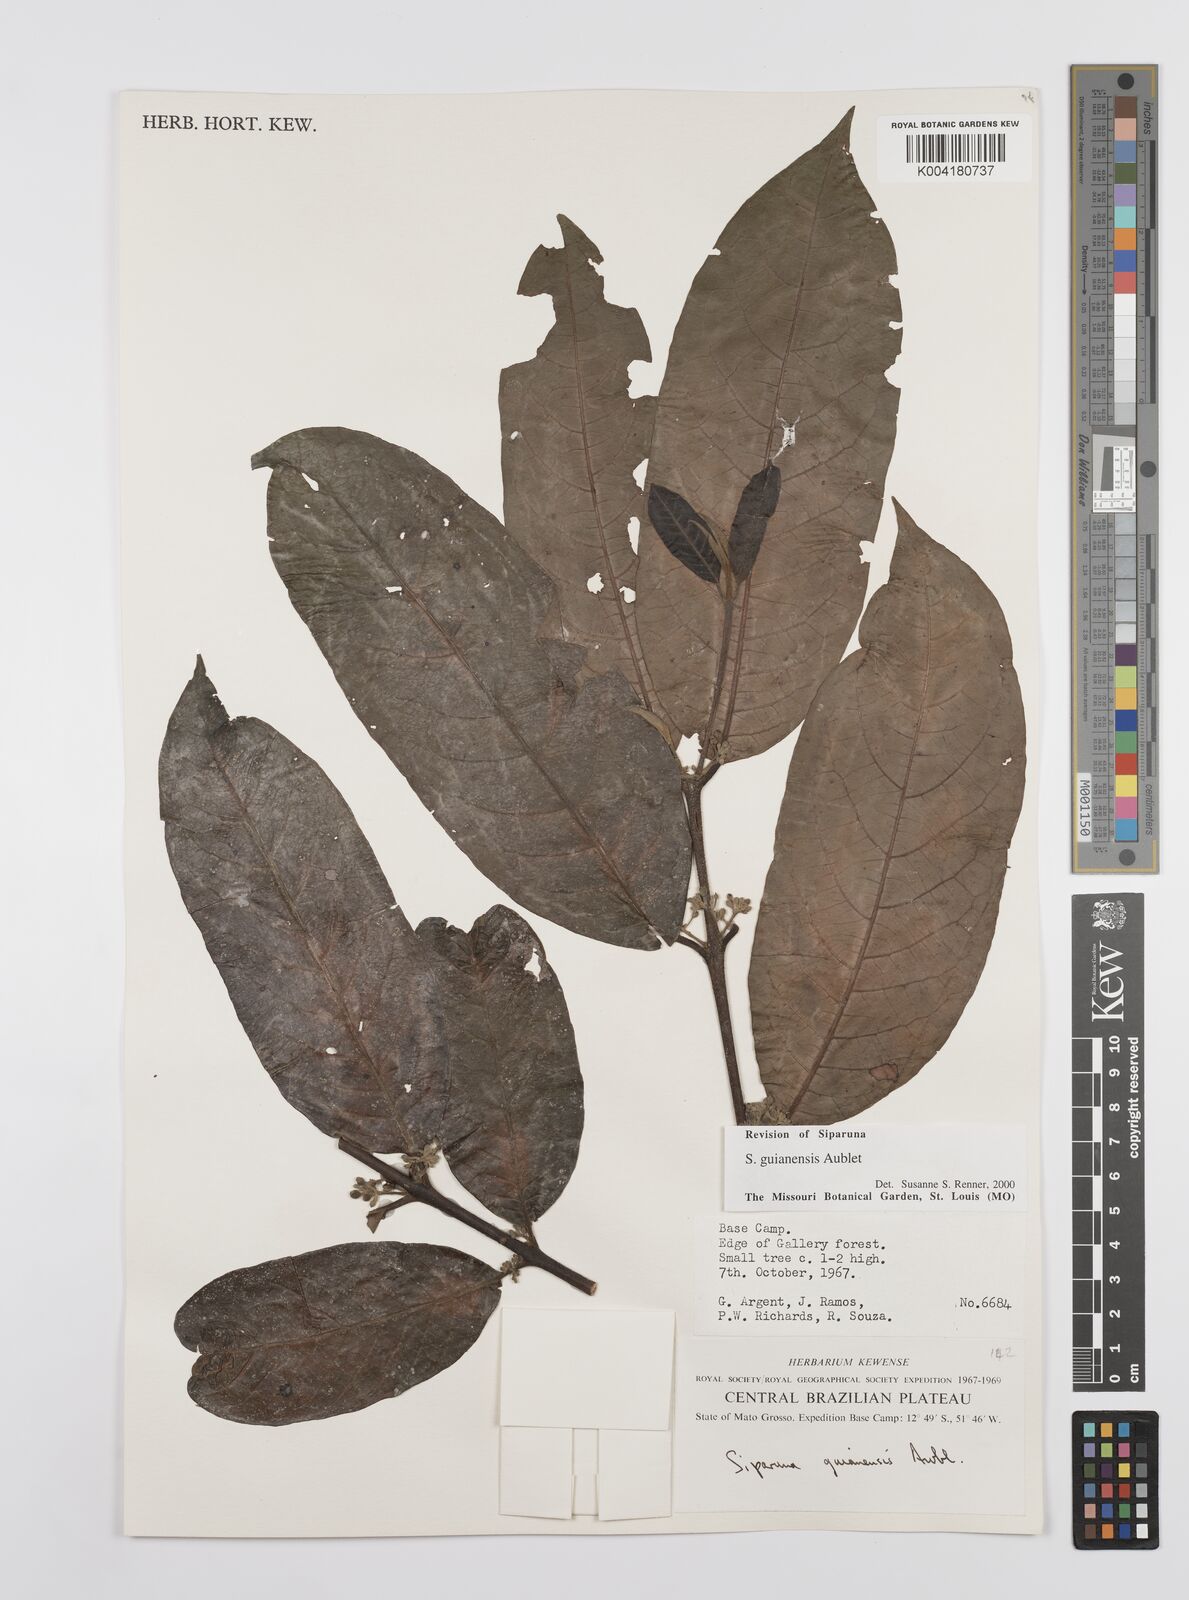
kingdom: Plantae
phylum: Tracheophyta
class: Magnoliopsida
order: Laurales
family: Siparunaceae
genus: Siparuna
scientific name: Siparuna guianensis
